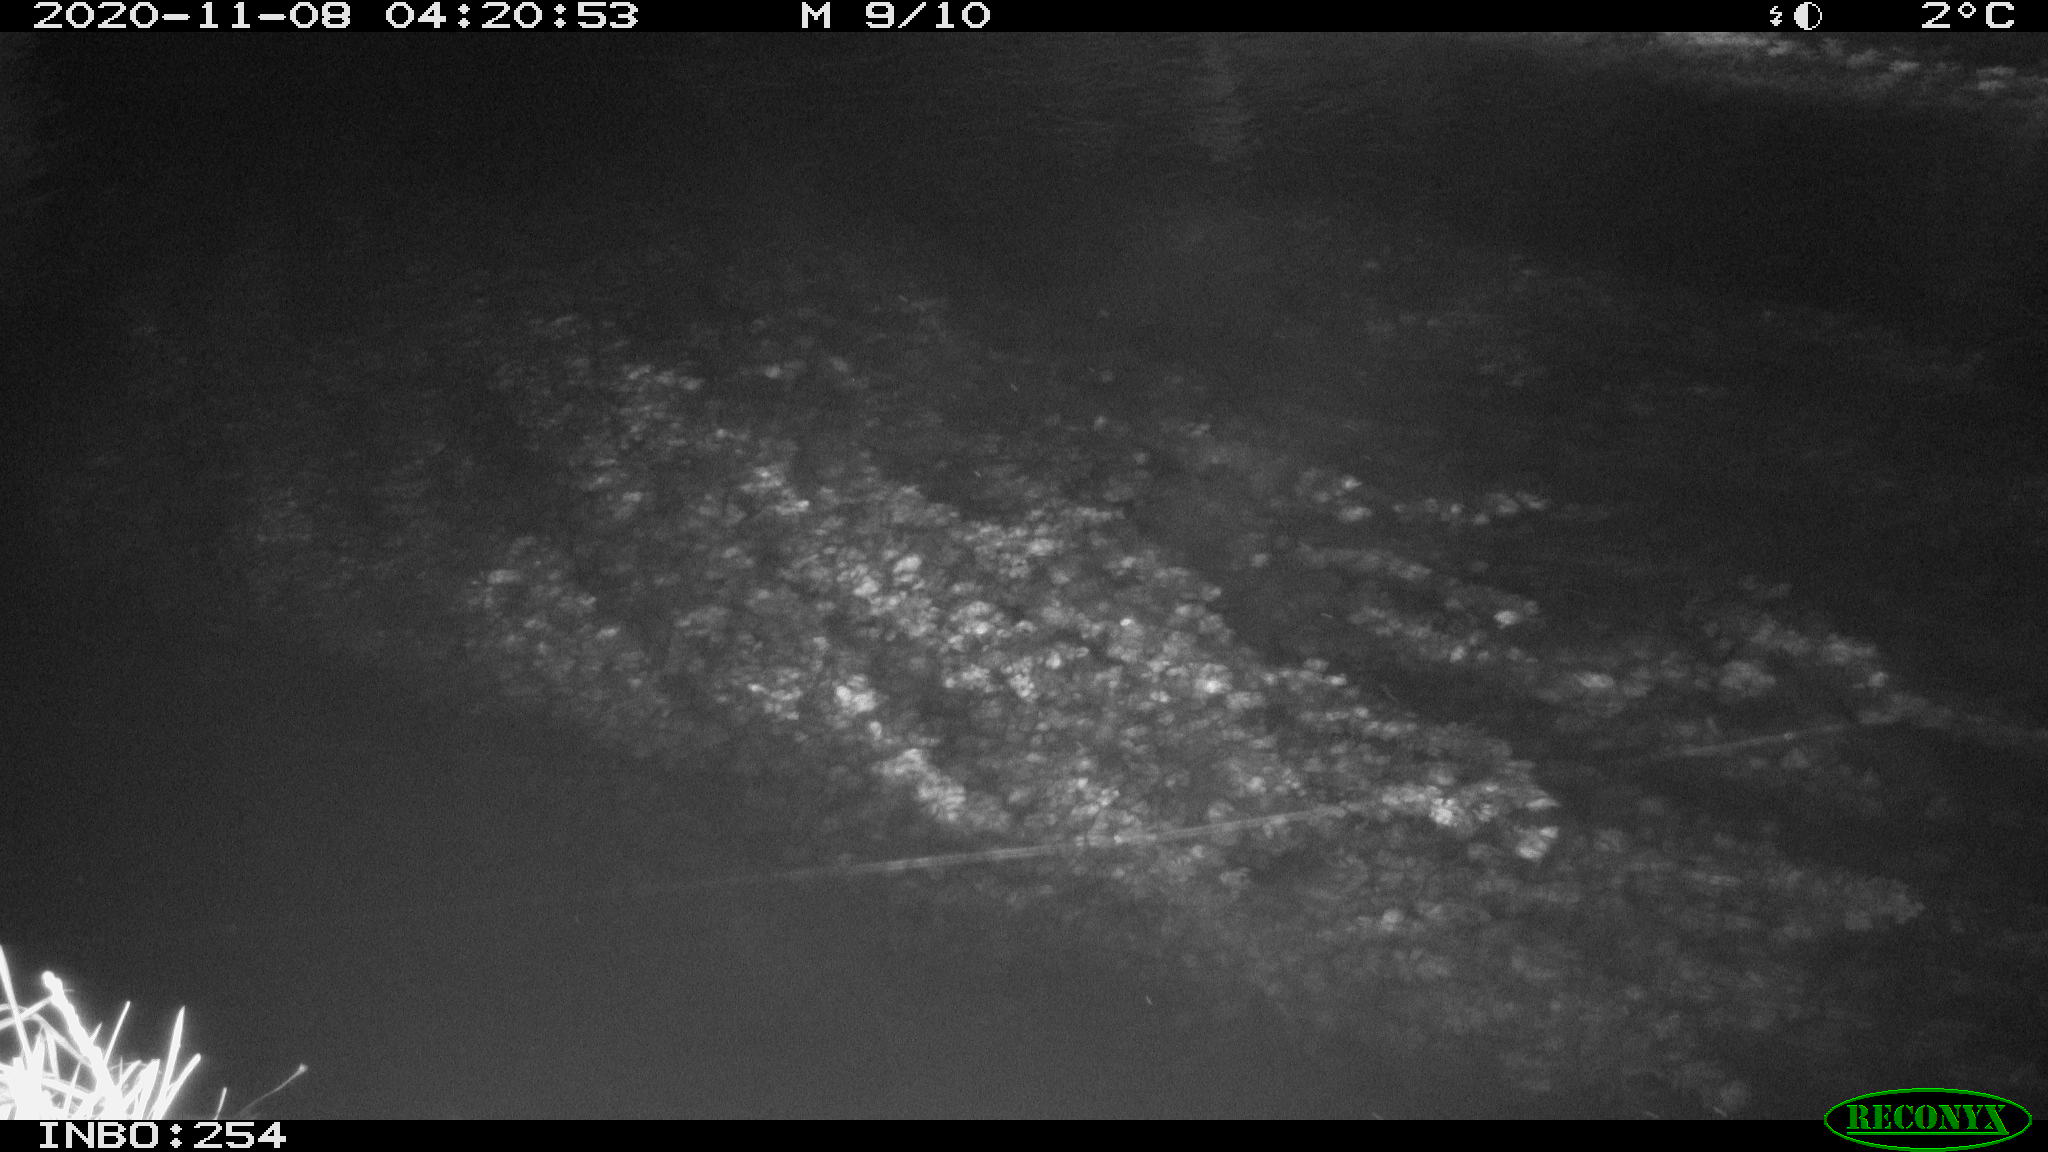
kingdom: Animalia
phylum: Chordata
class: Aves
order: Anseriformes
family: Anatidae
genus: Anas
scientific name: Anas platyrhynchos
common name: Mallard
